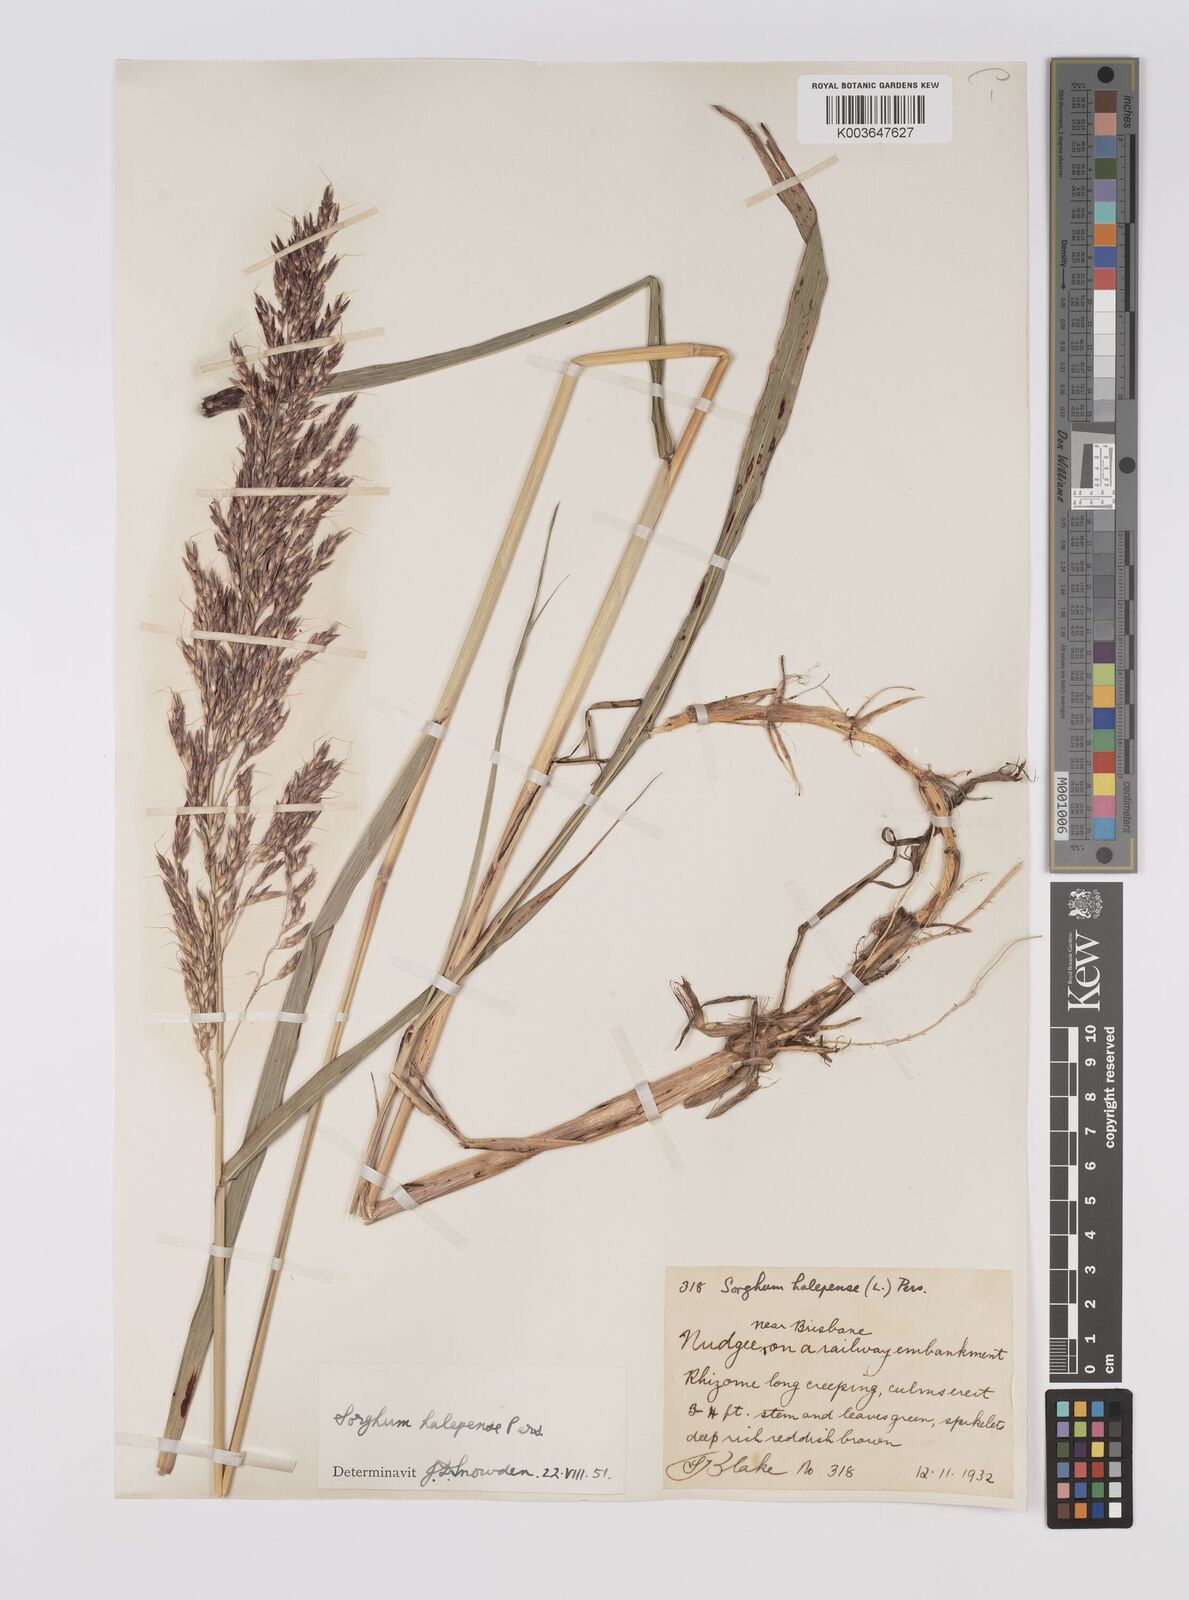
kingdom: Plantae
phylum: Tracheophyta
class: Liliopsida
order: Poales
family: Poaceae
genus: Sorghum
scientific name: Sorghum halepense
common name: Johnson-grass
